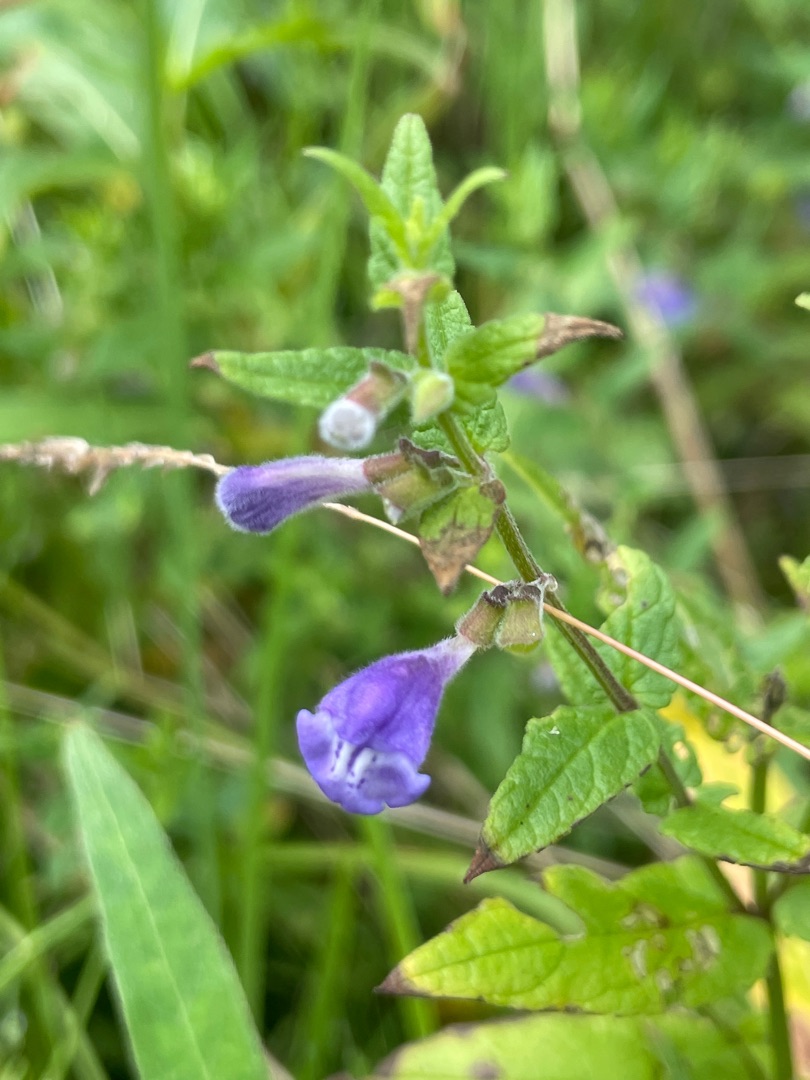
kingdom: Plantae
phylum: Tracheophyta
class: Magnoliopsida
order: Lamiales
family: Lamiaceae
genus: Scutellaria
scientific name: Scutellaria galericulata
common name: Almindelig skjolddrager
